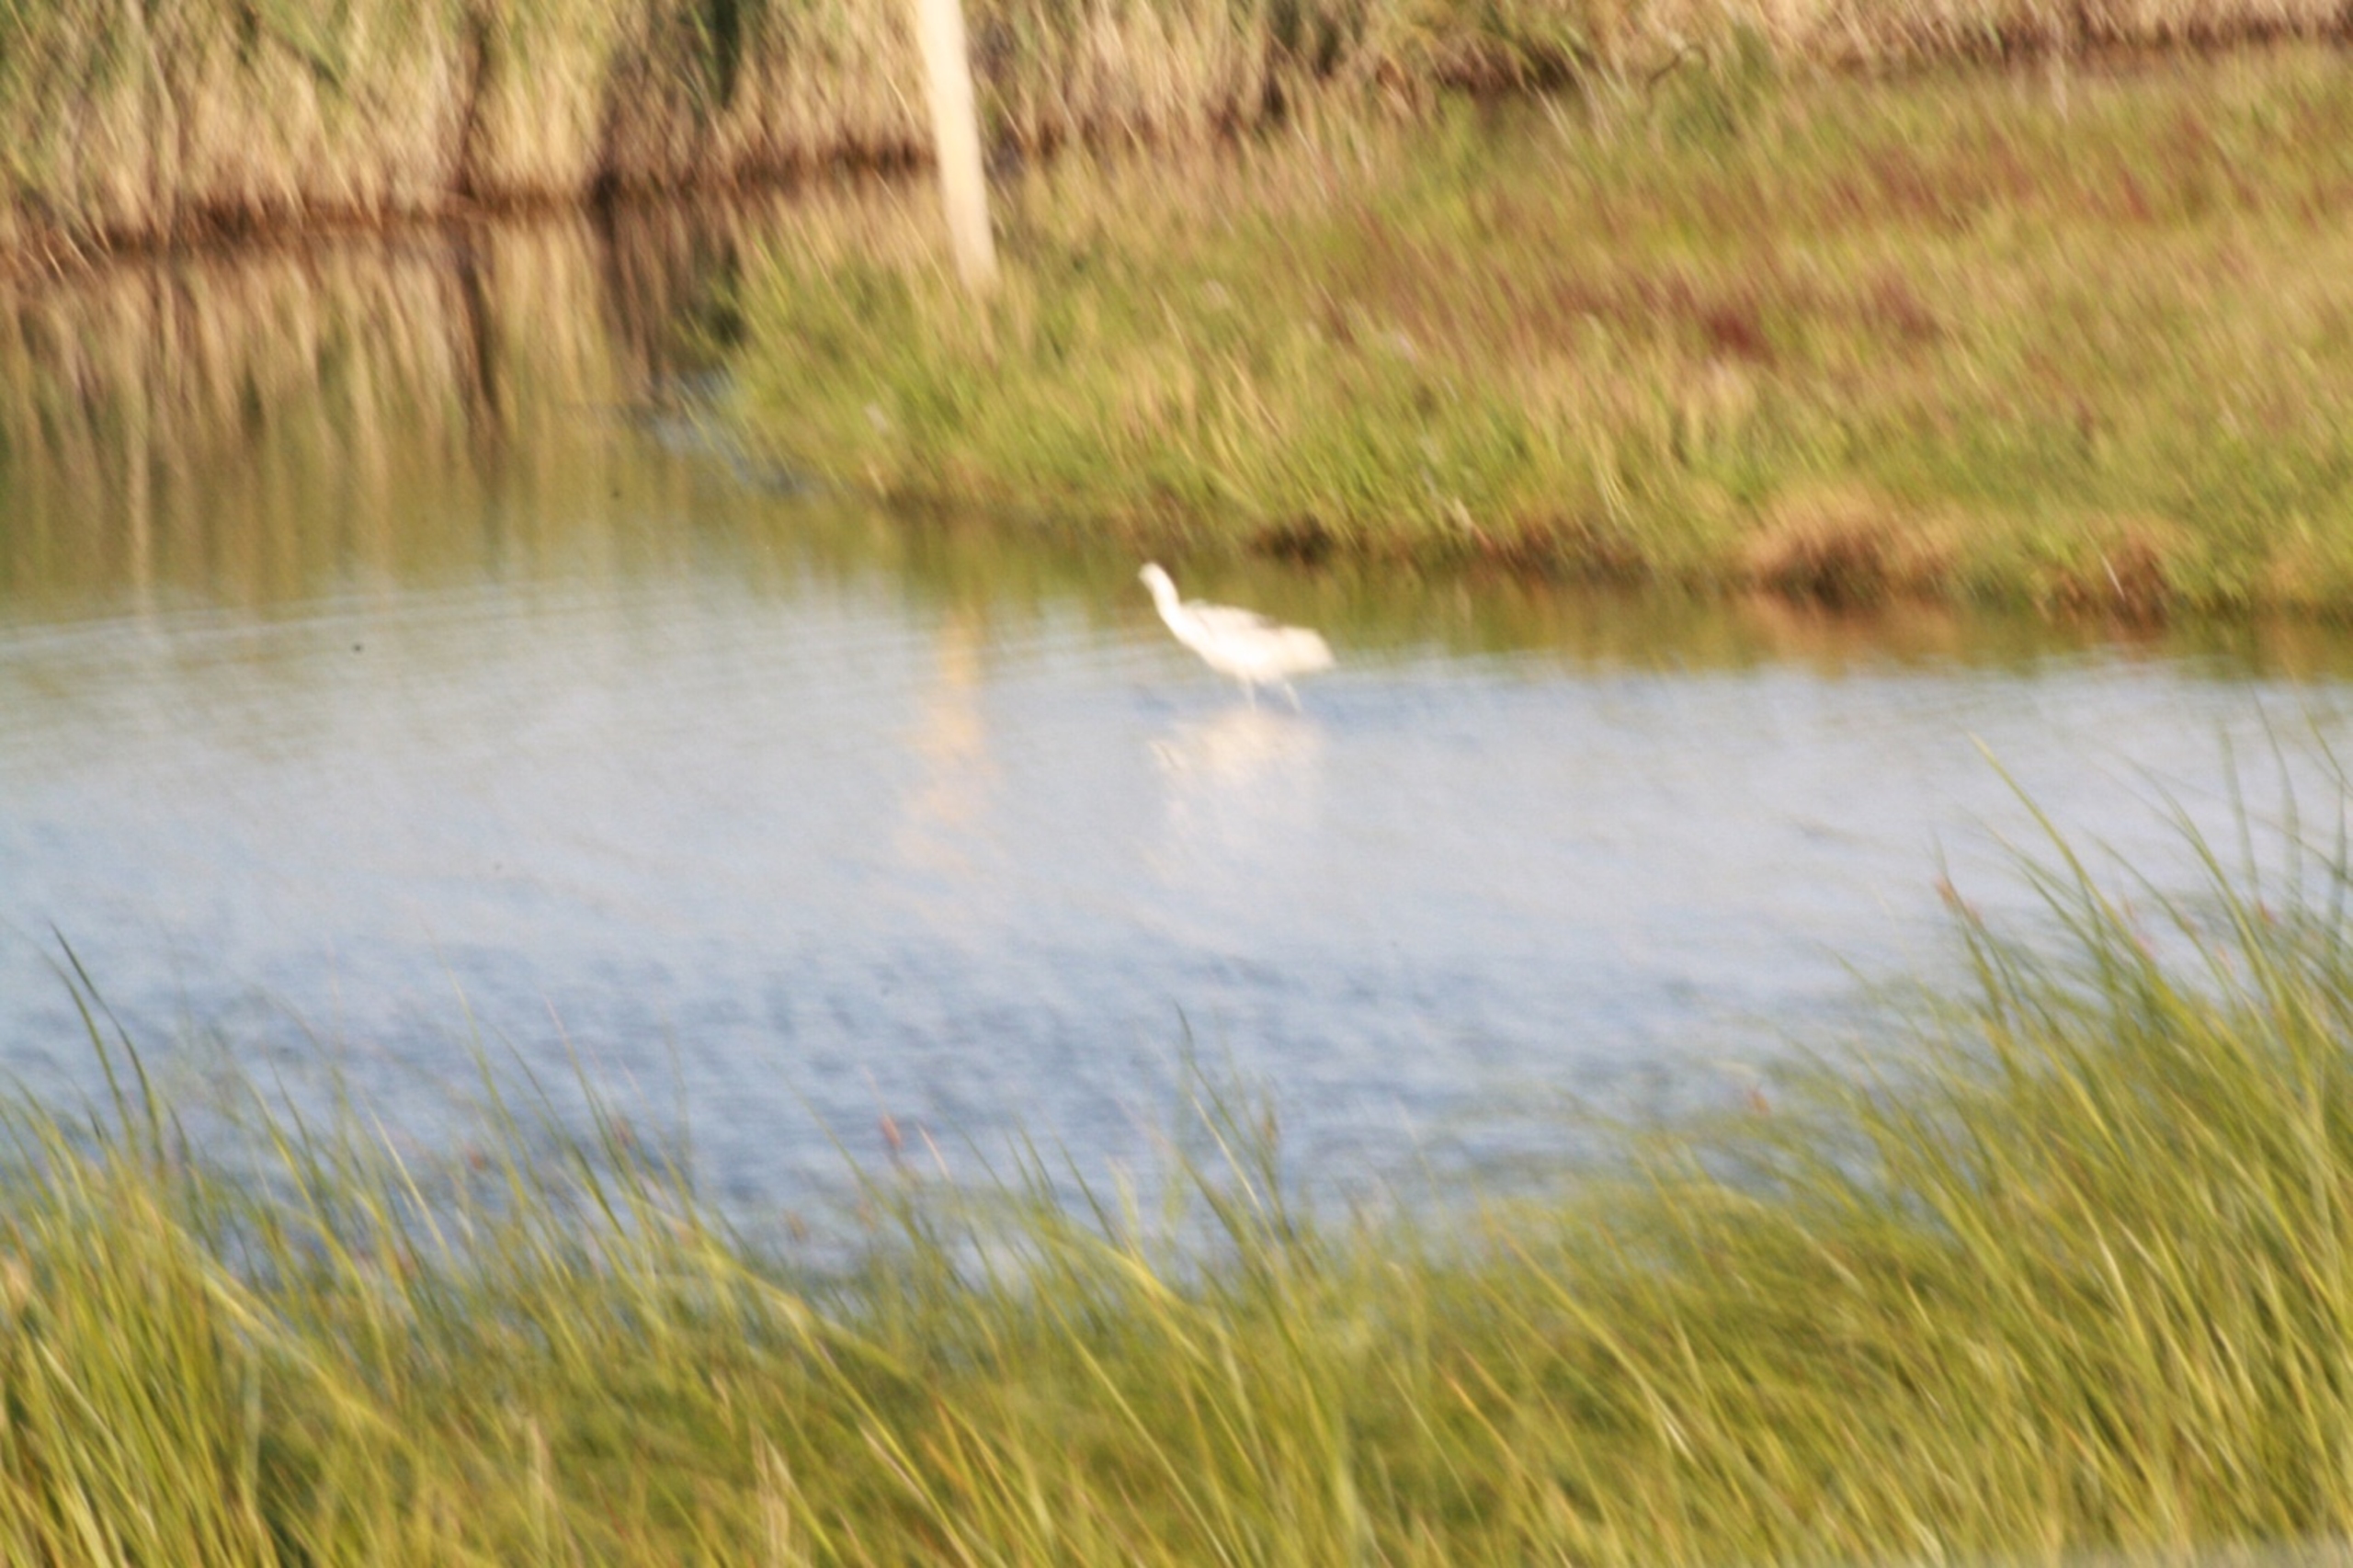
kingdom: Animalia
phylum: Chordata
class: Aves
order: Charadriiformes
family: Recurvirostridae
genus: Recurvirostra
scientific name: Recurvirostra avosetta
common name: Klyde
